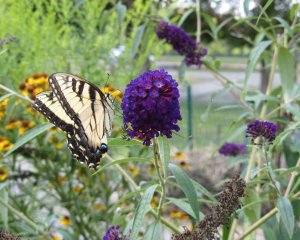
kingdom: Animalia
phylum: Arthropoda
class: Insecta
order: Lepidoptera
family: Papilionidae
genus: Pterourus
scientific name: Pterourus glaucus
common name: Eastern Tiger Swallowtail
